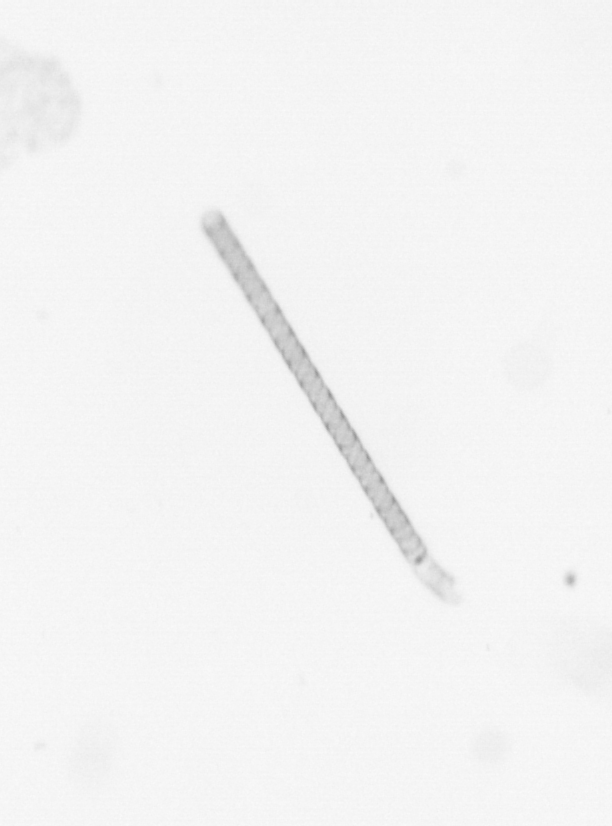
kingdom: Chromista
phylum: Ochrophyta
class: Bacillariophyceae
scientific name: Bacillariophyceae
